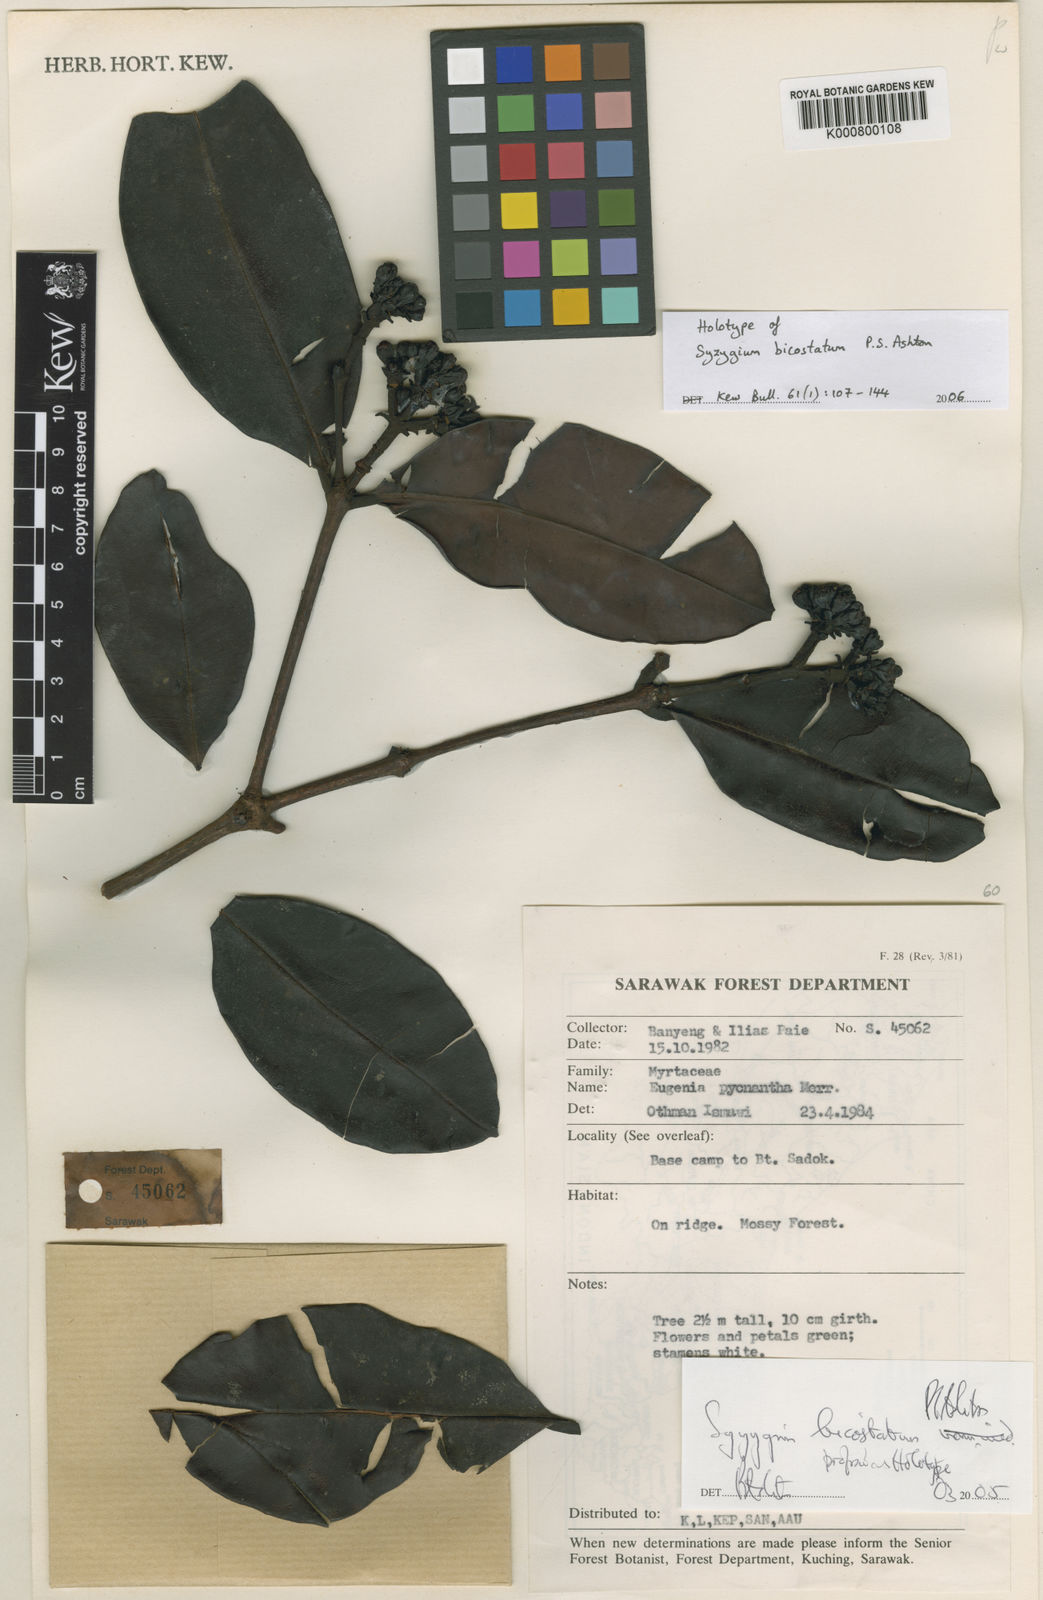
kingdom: Plantae
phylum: Tracheophyta
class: Magnoliopsida
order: Myrtales
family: Myrtaceae
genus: Syzygium
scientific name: Syzygium bicostatum
